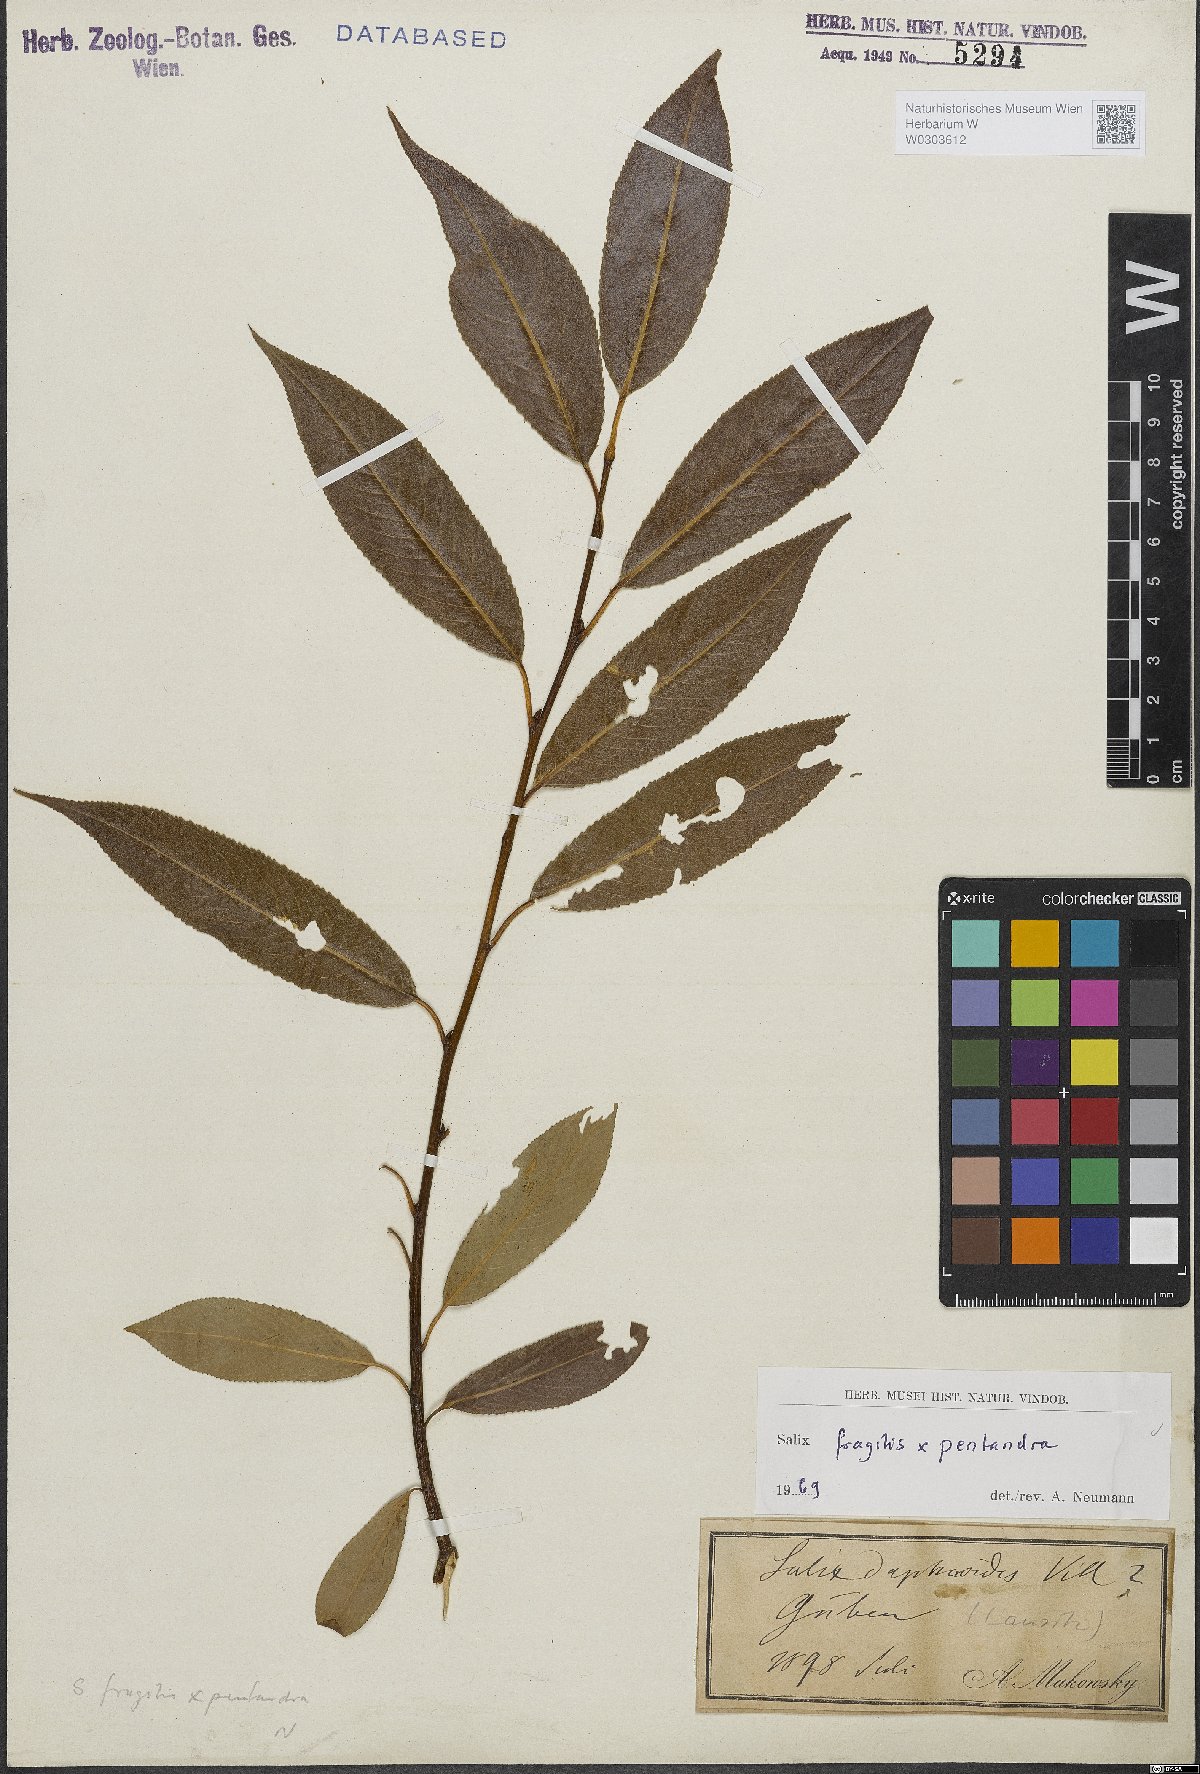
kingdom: Plantae
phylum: Tracheophyta
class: Magnoliopsida
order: Malpighiales
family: Salicaceae
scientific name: Salicaceae
